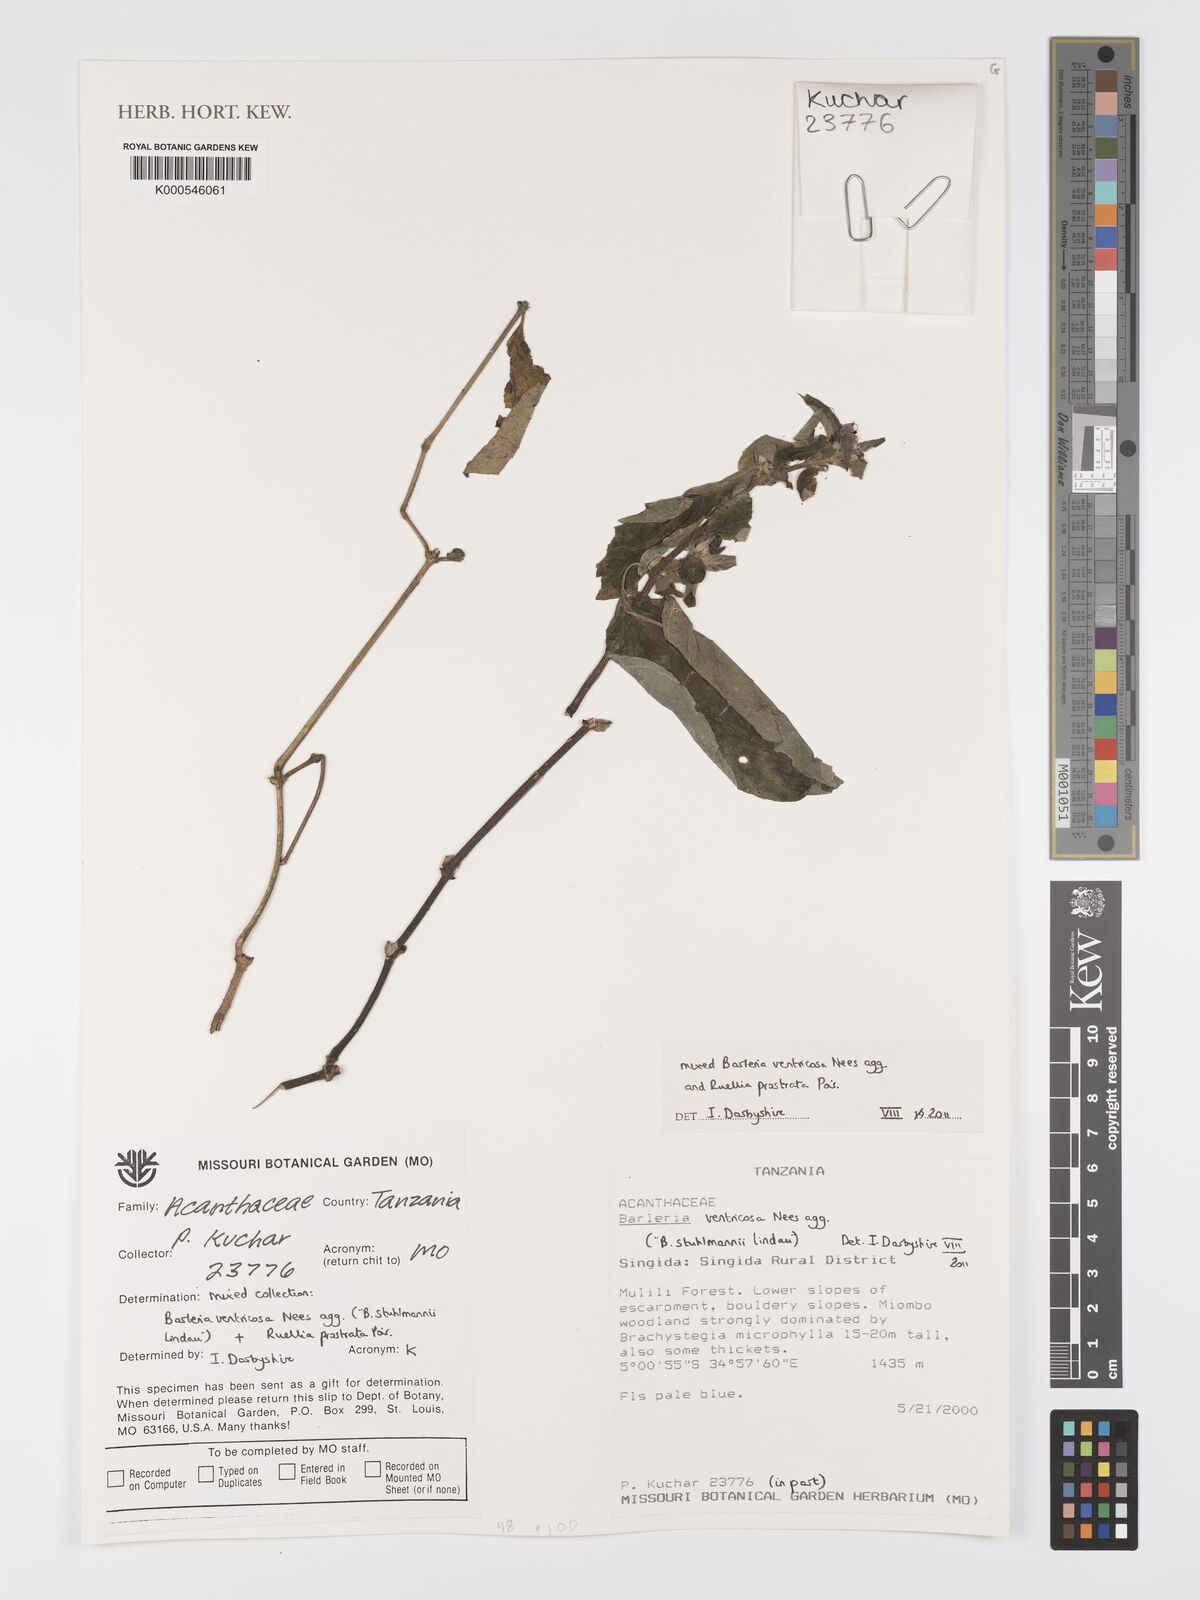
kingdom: Plantae
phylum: Tracheophyta
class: Magnoliopsida
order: Lamiales
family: Acanthaceae
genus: Barleria
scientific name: Barleria ventricosa
